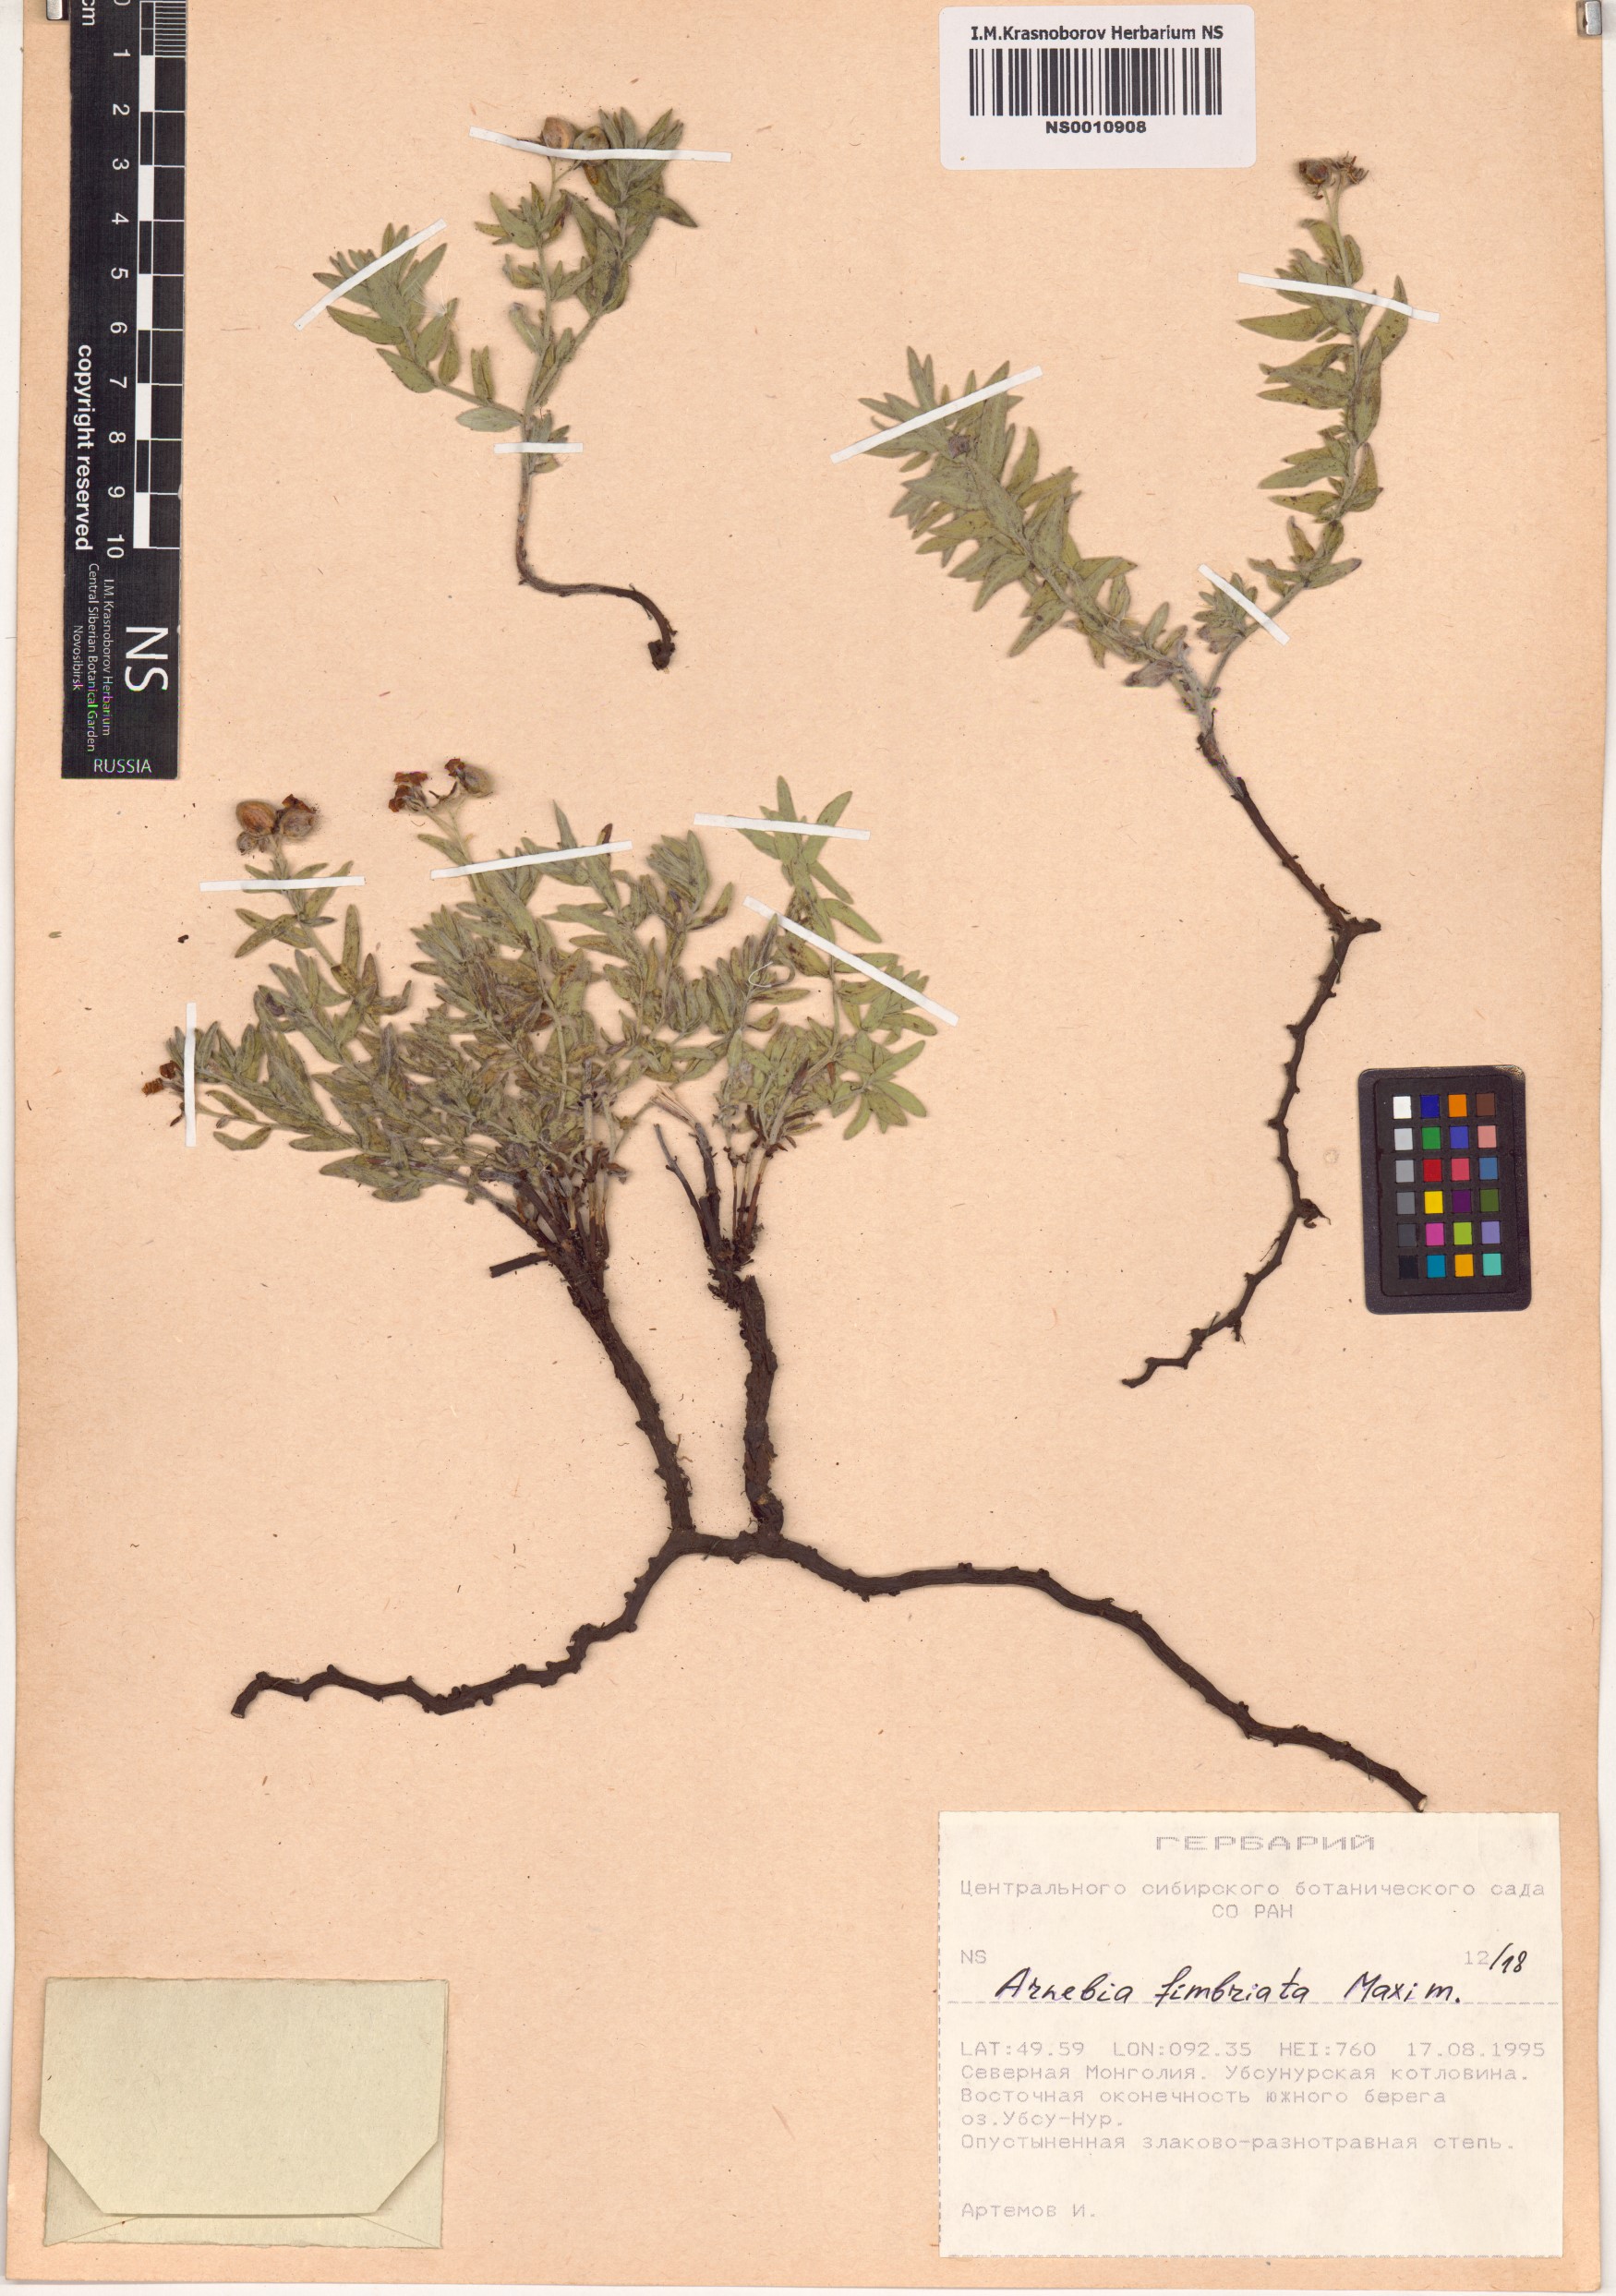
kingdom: Plantae
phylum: Tracheophyta
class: Magnoliopsida
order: Boraginales
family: Boraginaceae
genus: Arnebia
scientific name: Arnebia fimbriata
